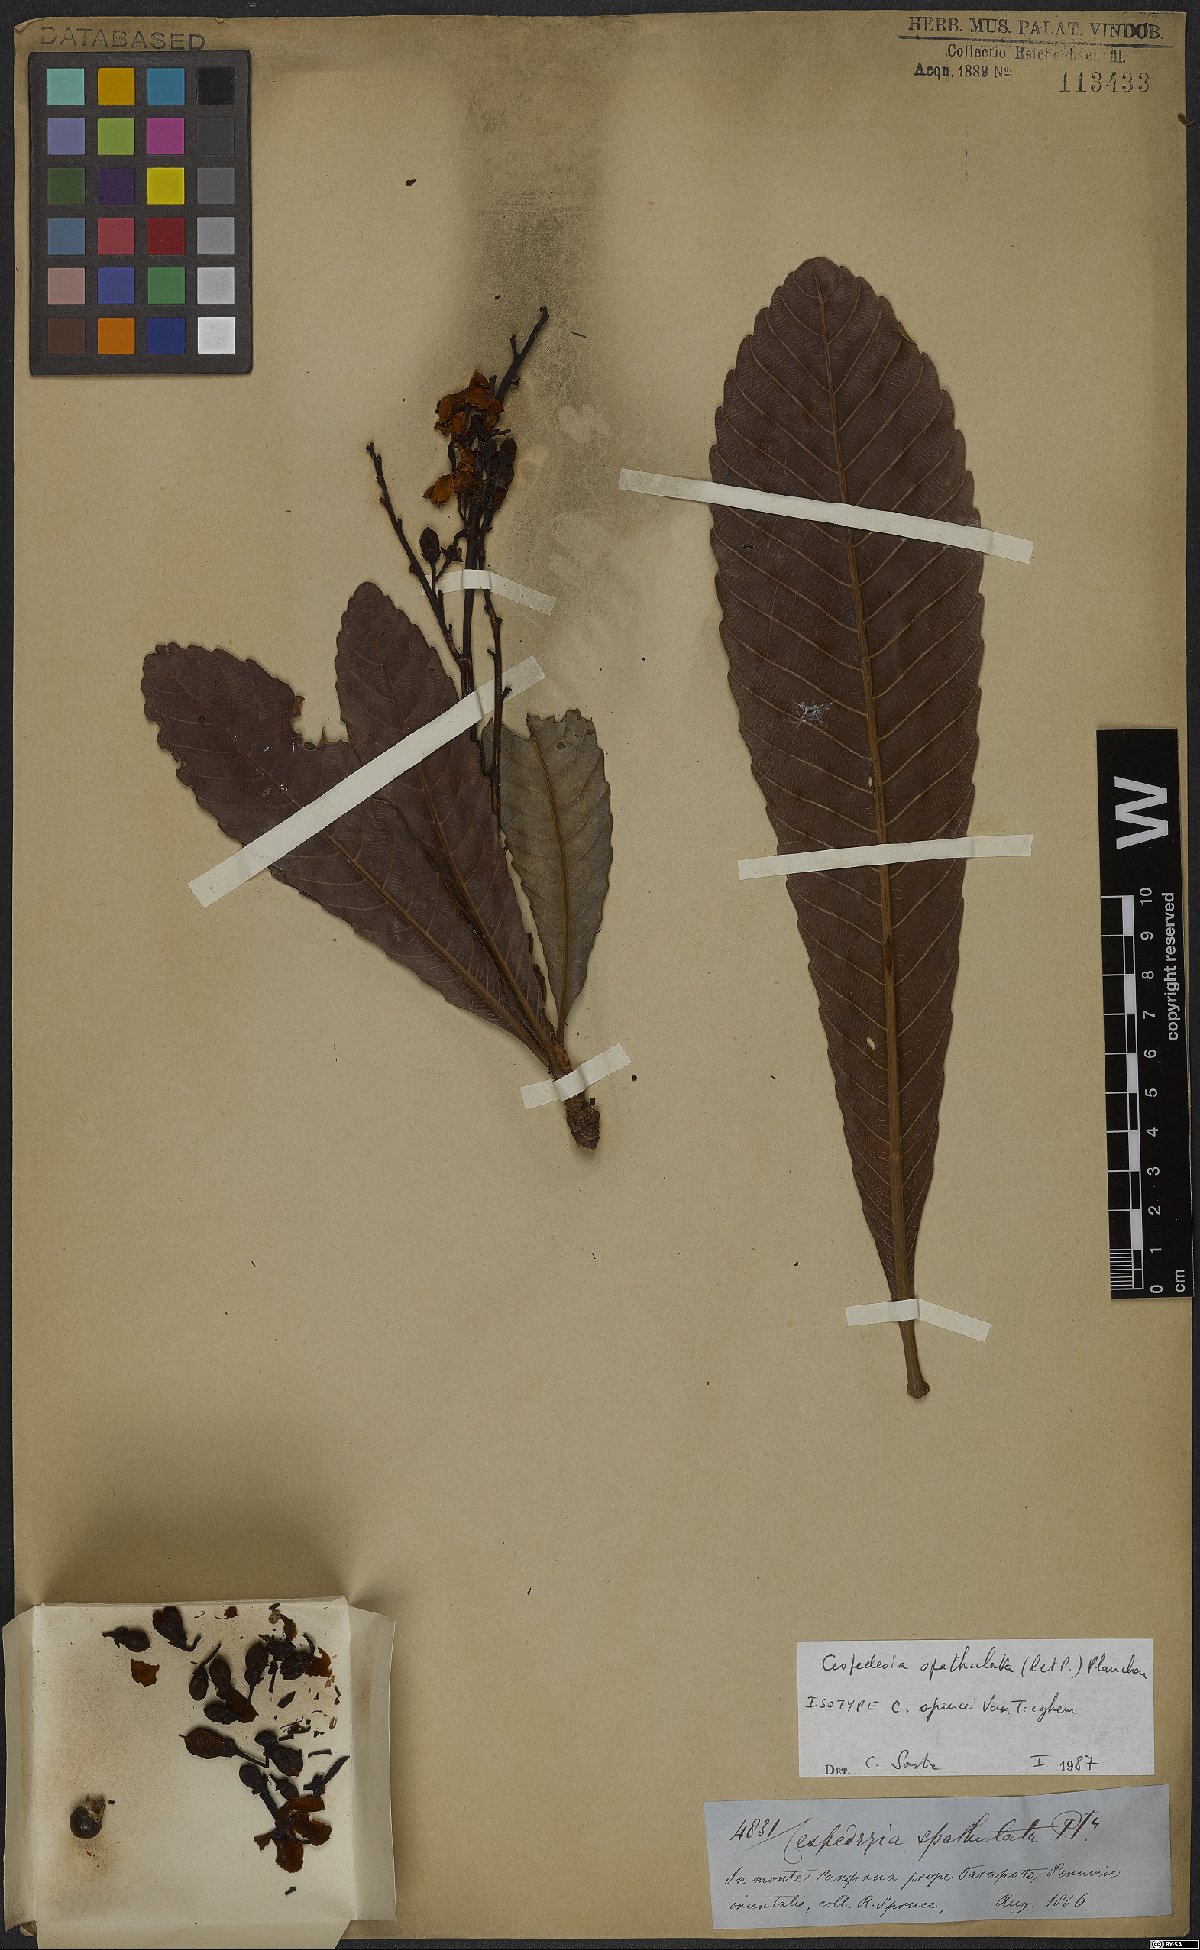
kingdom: Plantae
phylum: Tracheophyta
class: Magnoliopsida
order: Malpighiales
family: Ochnaceae
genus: Cespedesia
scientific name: Cespedesia spathulata
